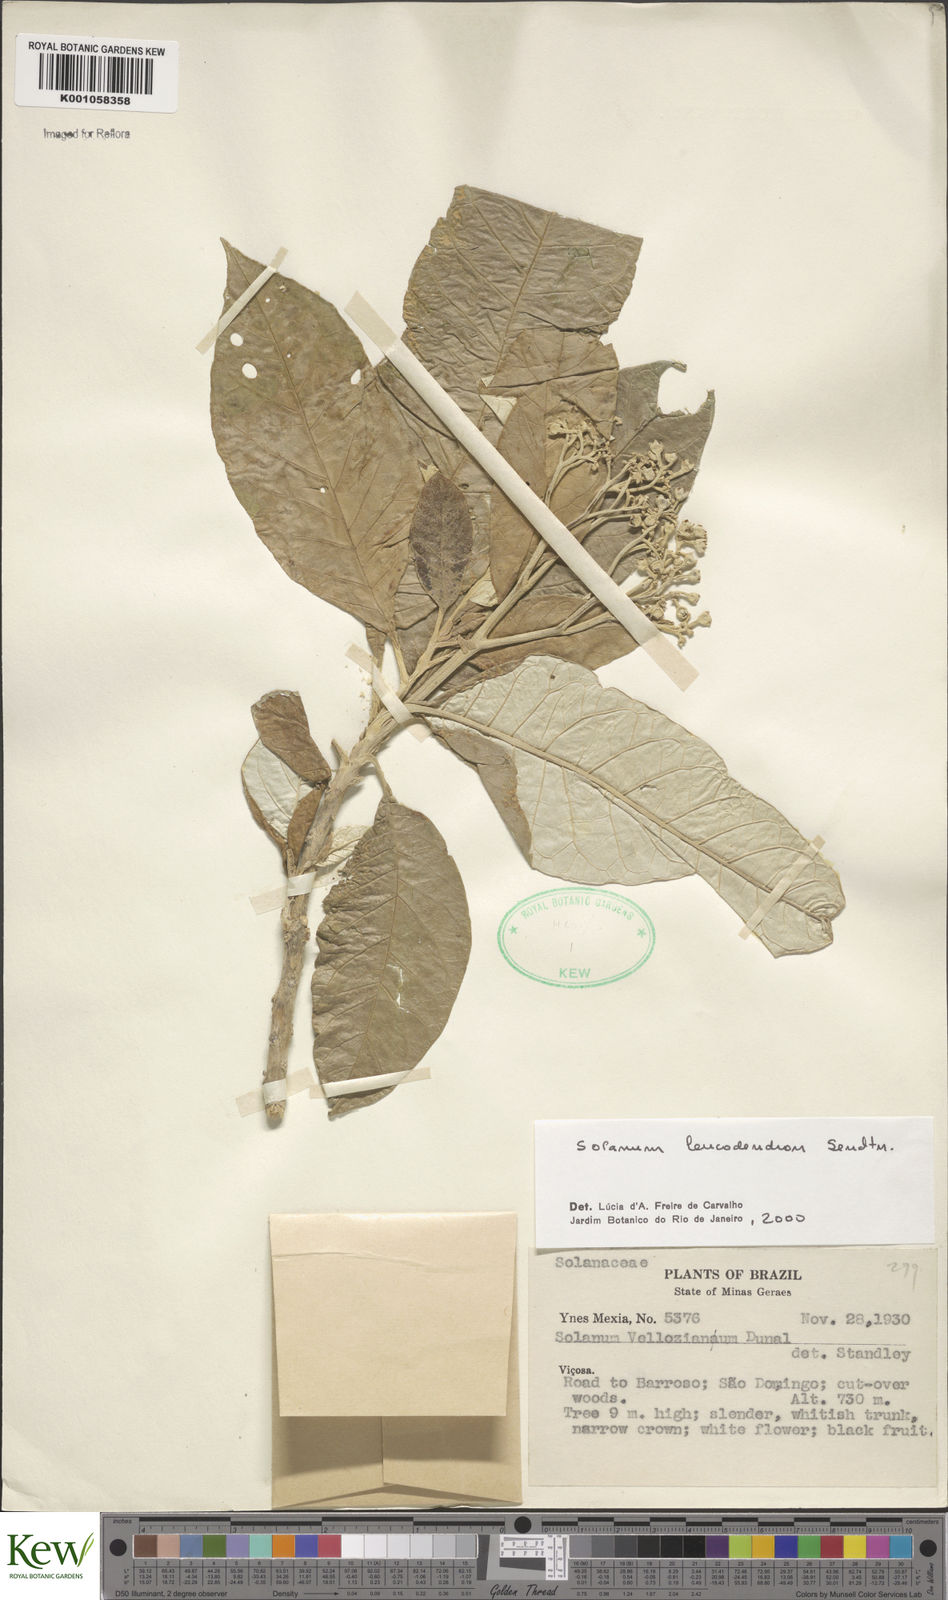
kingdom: Plantae
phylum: Tracheophyta
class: Magnoliopsida
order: Solanales
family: Solanaceae
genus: Solanum
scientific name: Solanum leucodendron
